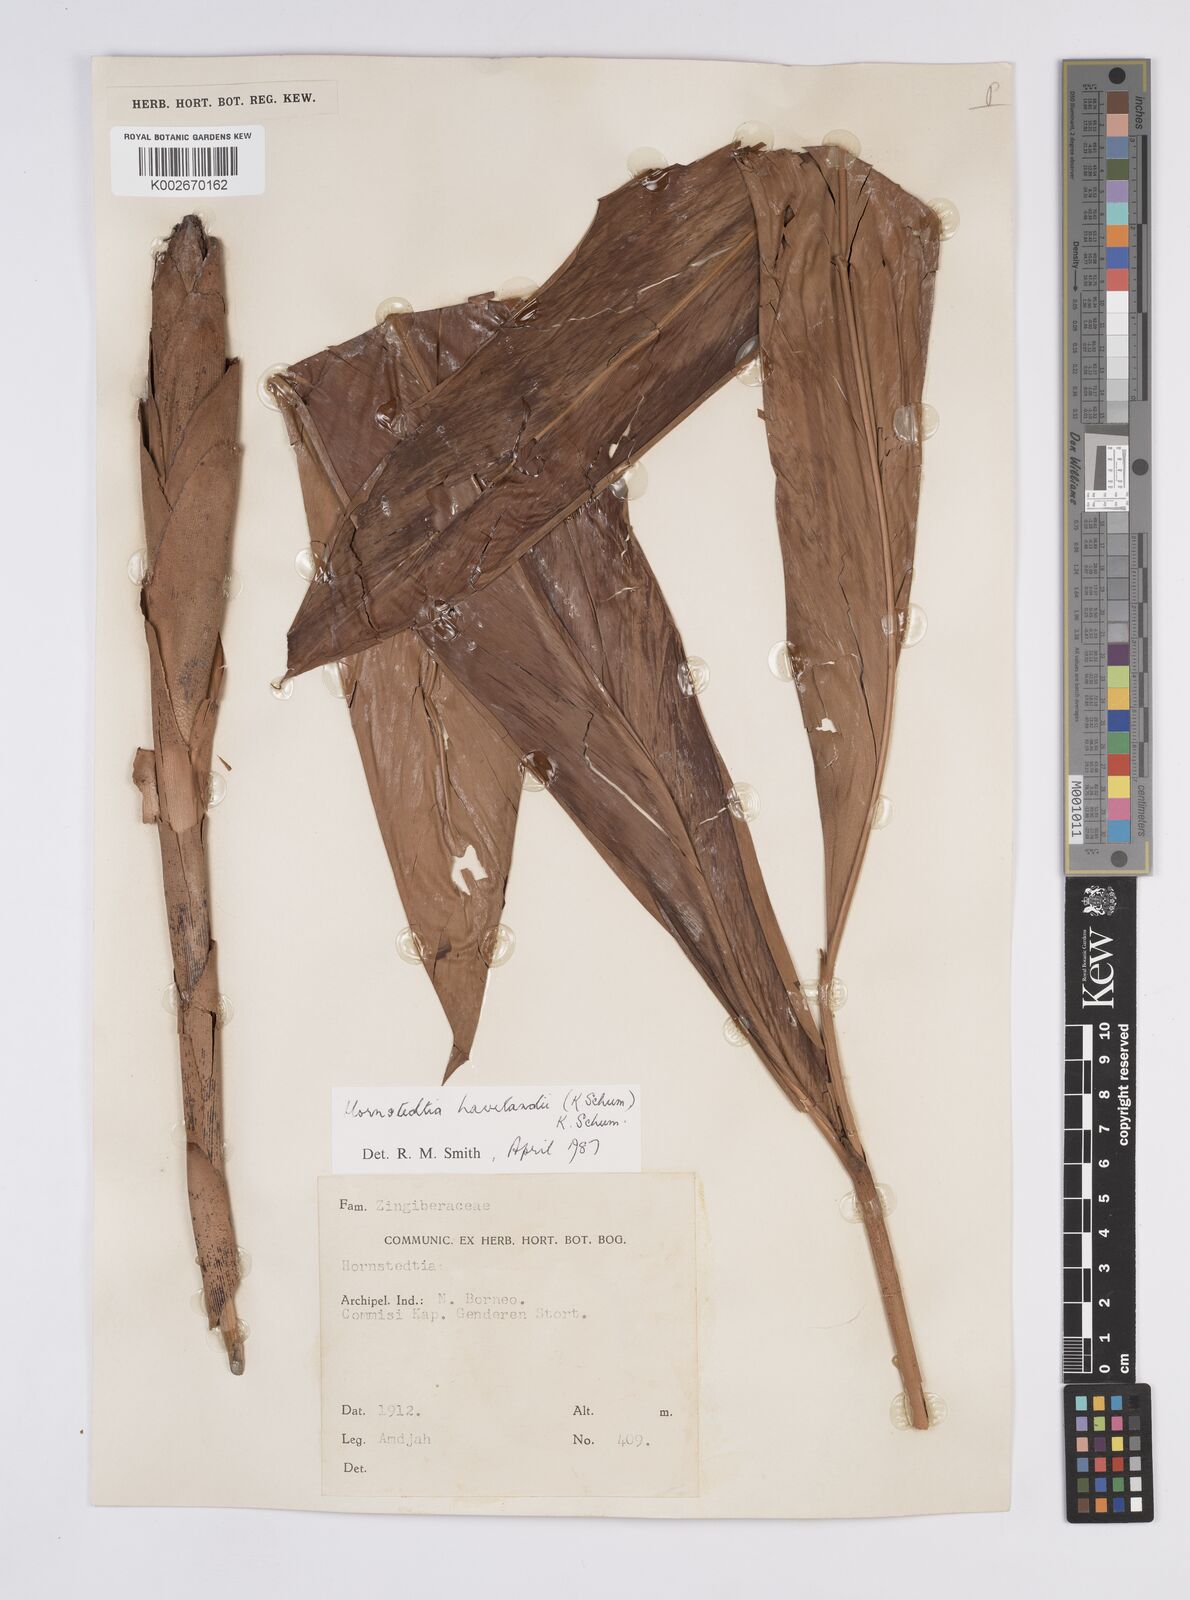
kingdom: Plantae
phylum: Tracheophyta
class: Liliopsida
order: Zingiberales
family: Zingiberaceae
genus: Hornstedtia
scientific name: Hornstedtia havilandii
